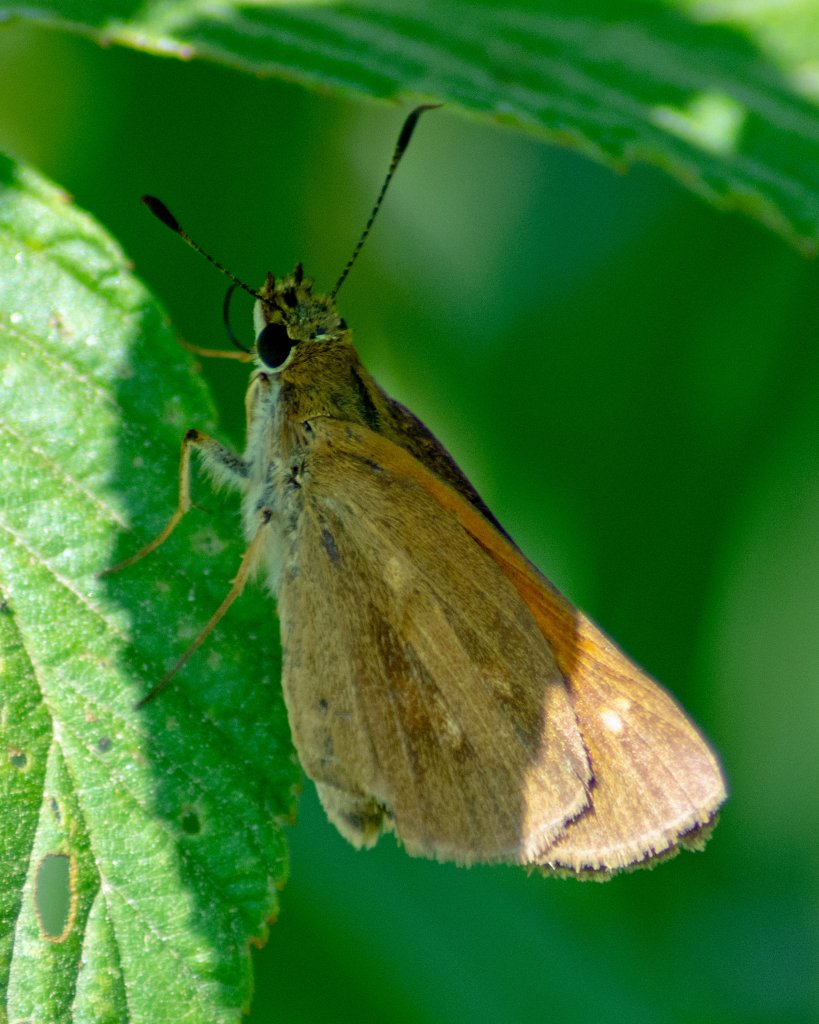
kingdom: Animalia
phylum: Arthropoda
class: Insecta
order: Lepidoptera
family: Hesperiidae
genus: Euphyes
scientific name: Euphyes dion
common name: Dion Skipper
